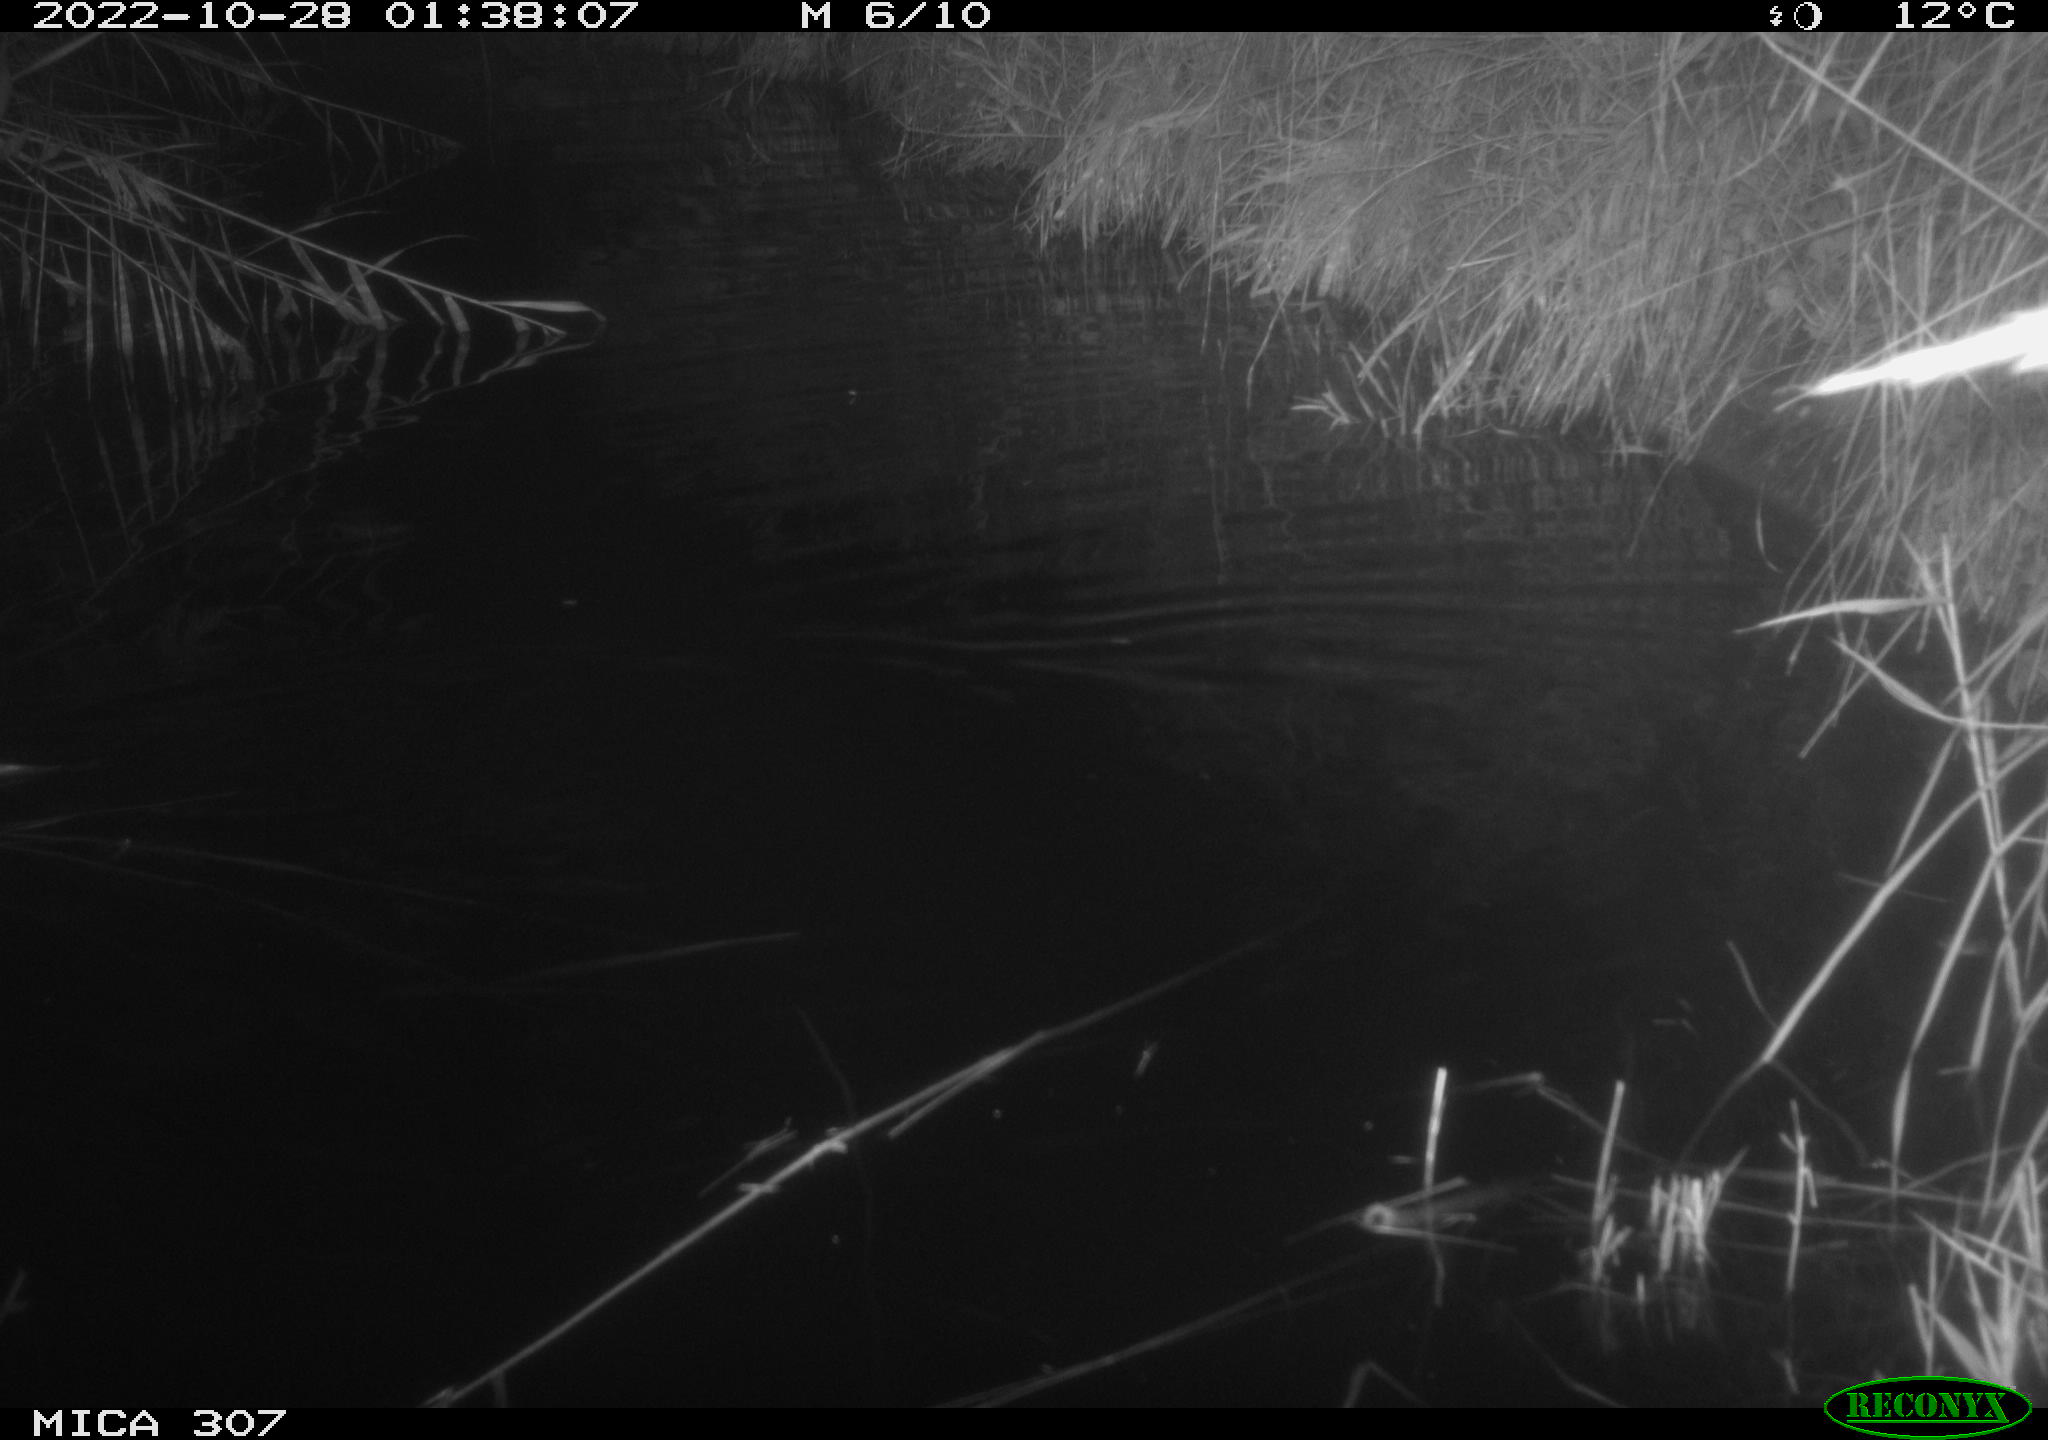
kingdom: Animalia
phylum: Chordata
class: Mammalia
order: Rodentia
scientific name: Rodentia
